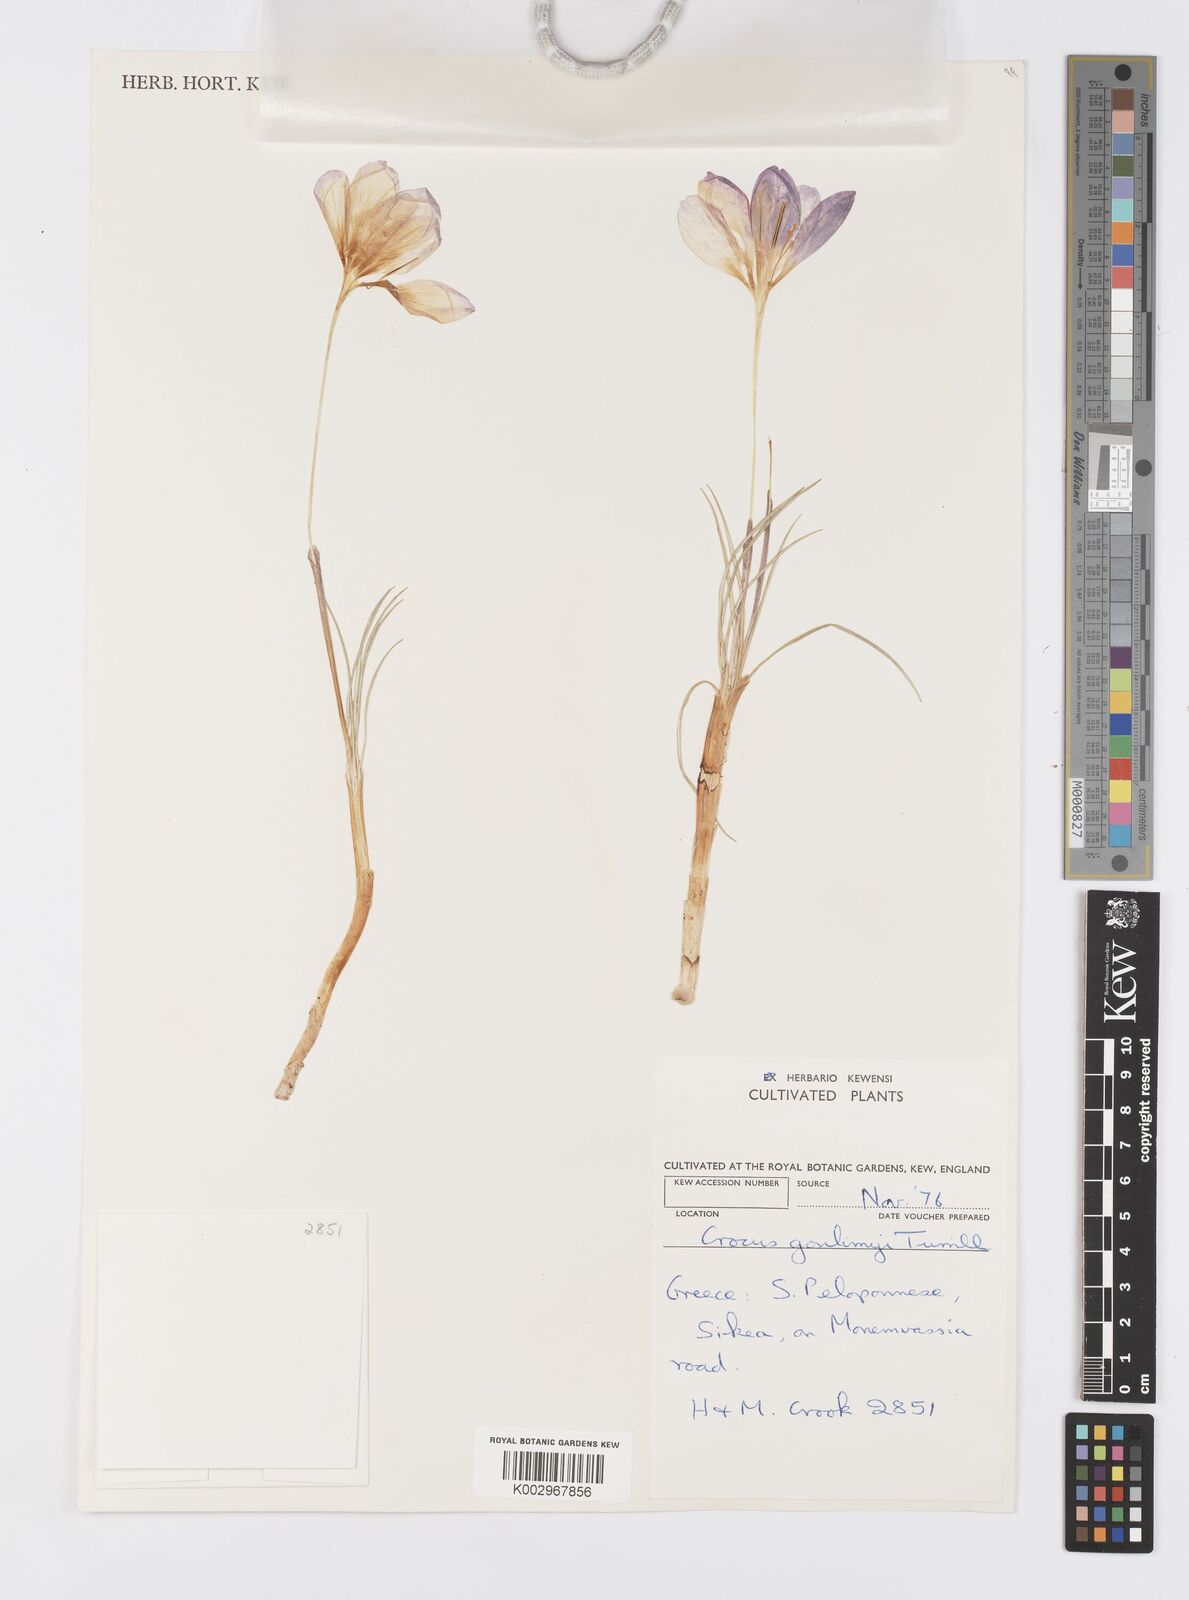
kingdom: Plantae
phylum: Tracheophyta
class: Liliopsida
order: Asparagales
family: Iridaceae
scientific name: Iridaceae
